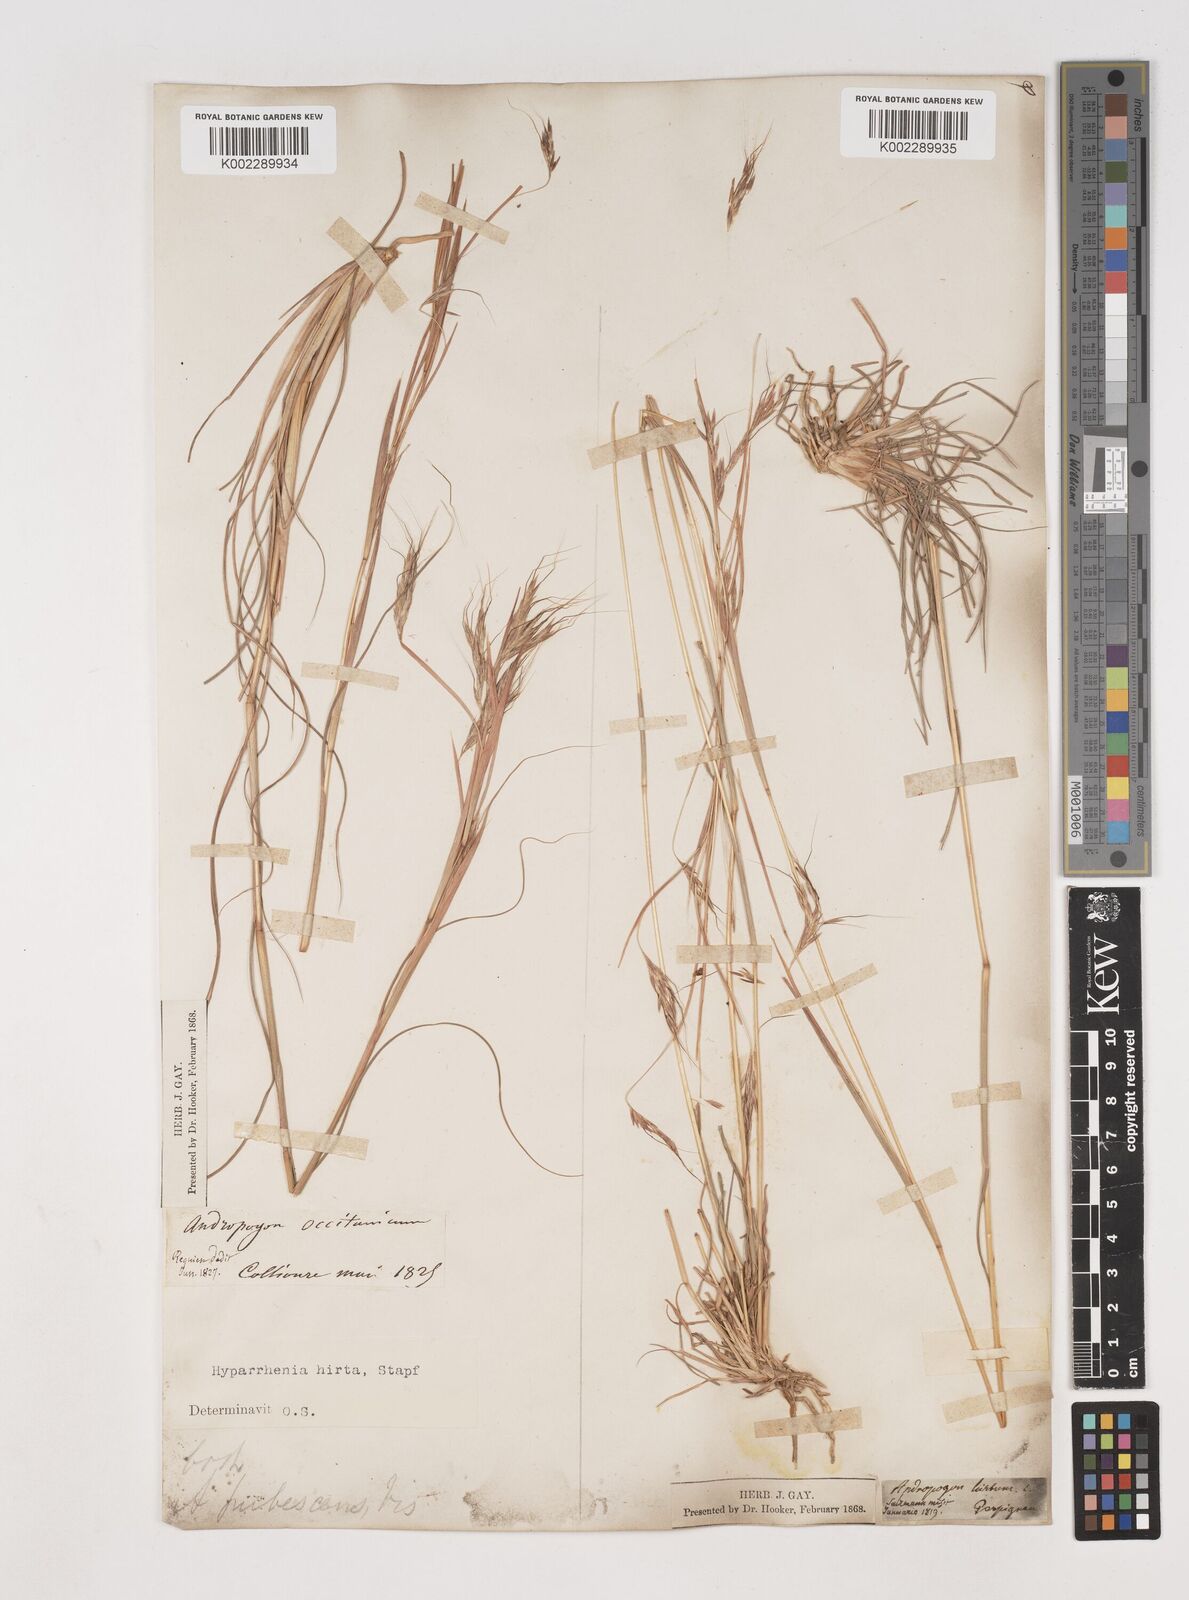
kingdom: Plantae
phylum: Tracheophyta
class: Liliopsida
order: Poales
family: Poaceae
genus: Hyparrhenia
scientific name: Hyparrhenia hirta
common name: Thatching grass
